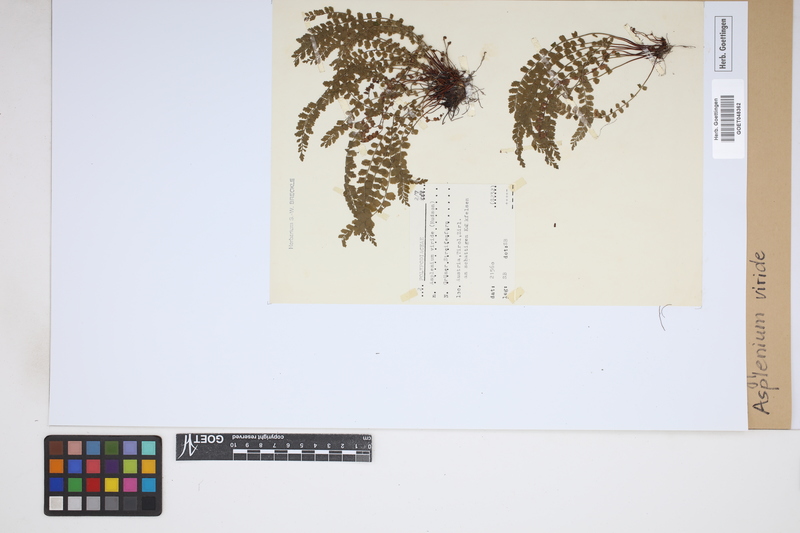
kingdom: Plantae
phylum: Tracheophyta
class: Polypodiopsida
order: Polypodiales
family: Aspleniaceae
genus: Asplenium
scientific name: Asplenium viride
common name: Green spleenwort
